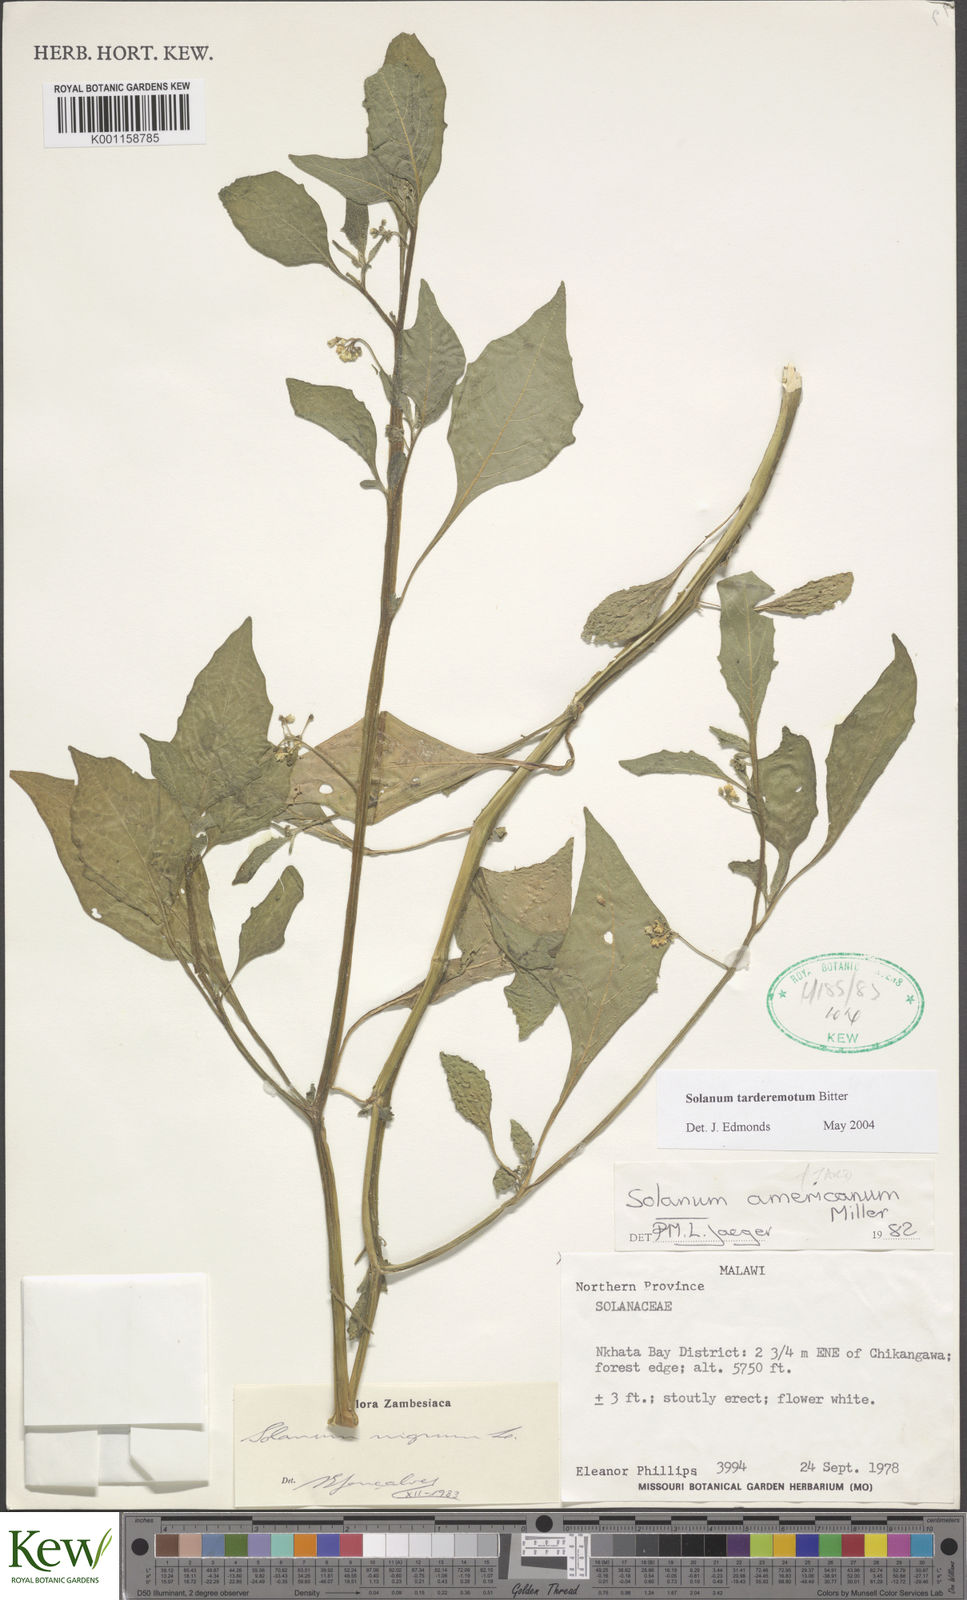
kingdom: Plantae
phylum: Tracheophyta
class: Magnoliopsida
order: Solanales
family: Solanaceae
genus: Solanum
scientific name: Solanum tarderemotum
